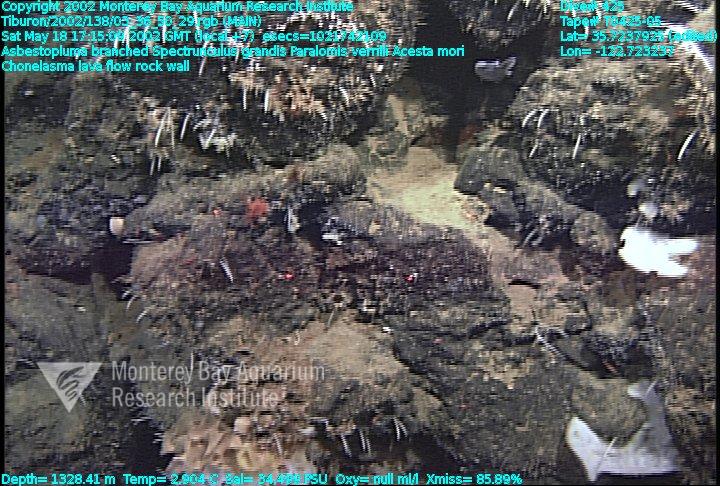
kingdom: Animalia
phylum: Porifera
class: Demospongiae
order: Poecilosclerida
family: Cladorhizidae
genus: Asbestopluma
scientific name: Asbestopluma monticola
